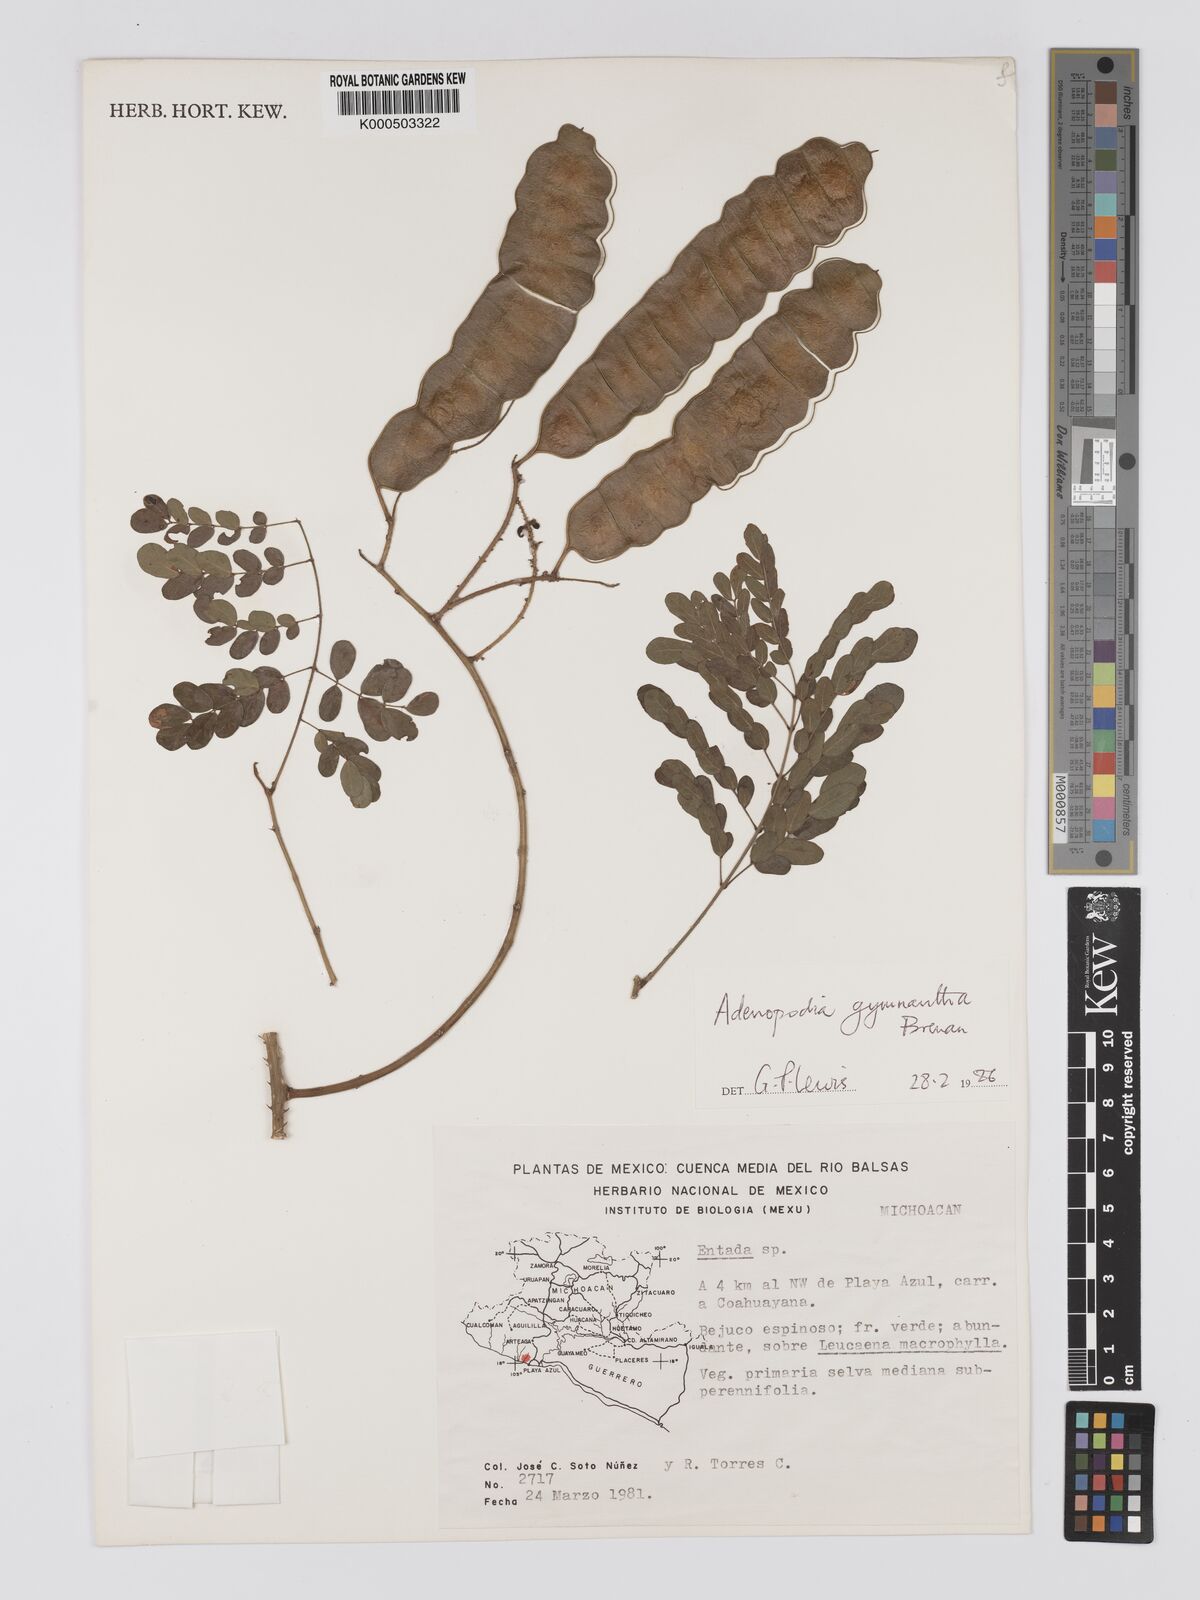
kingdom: Plantae
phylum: Tracheophyta
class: Magnoliopsida
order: Fabales
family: Fabaceae
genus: Adenopodia
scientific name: Adenopodia gymnantha
